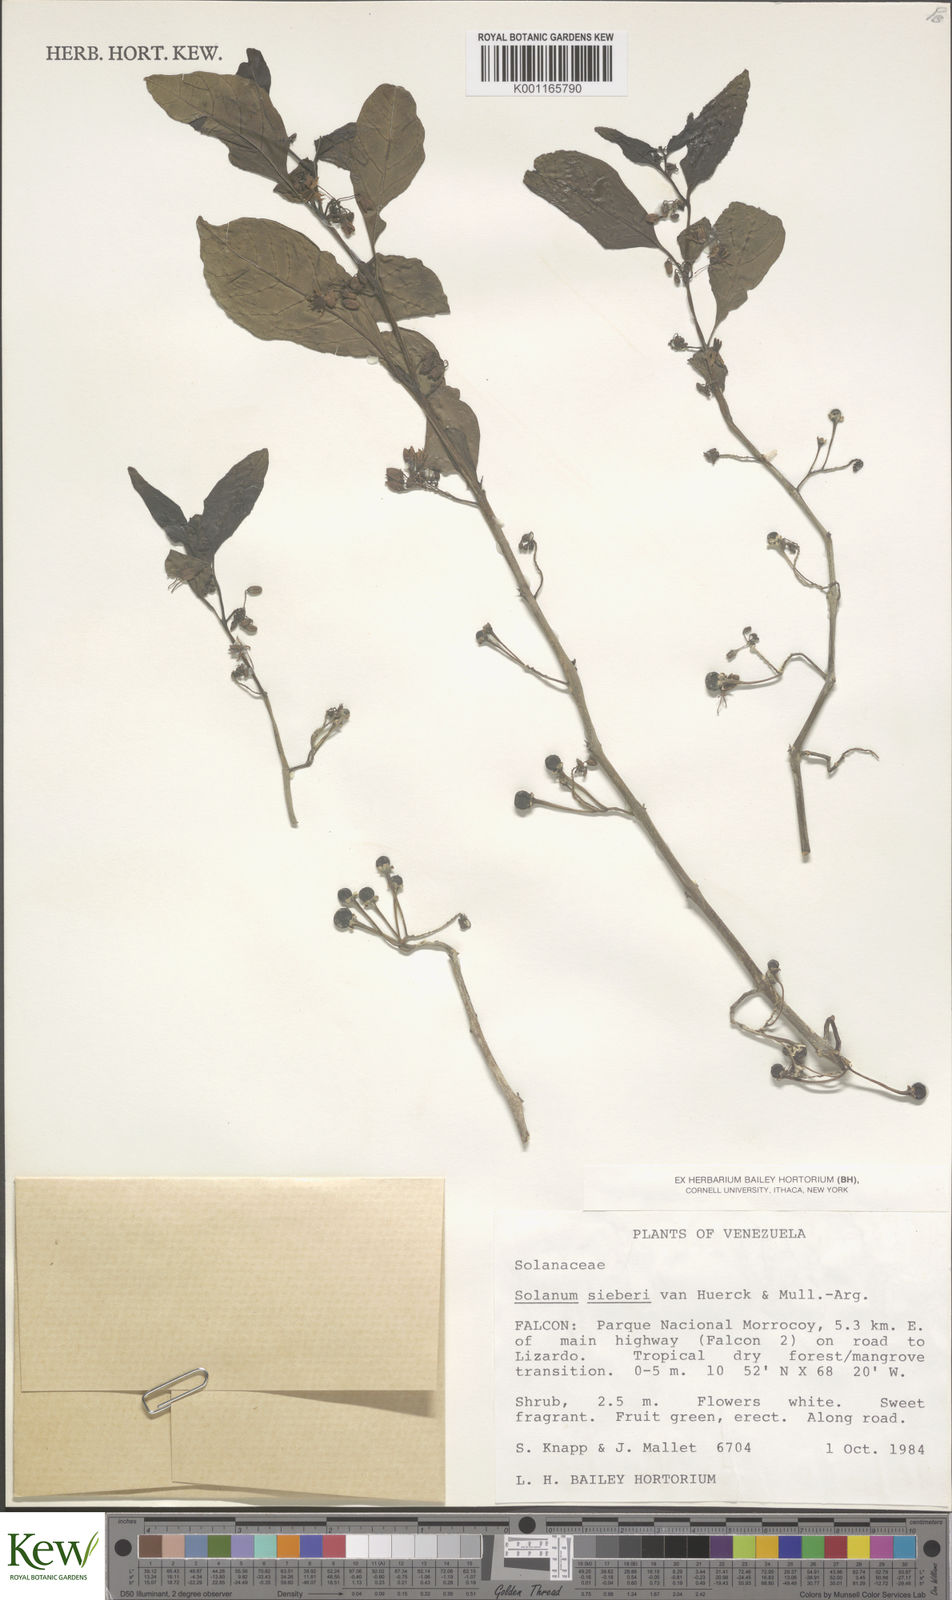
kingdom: Plantae
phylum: Tracheophyta
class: Magnoliopsida
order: Solanales
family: Solanaceae
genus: Solanum
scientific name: Solanum sieberi
